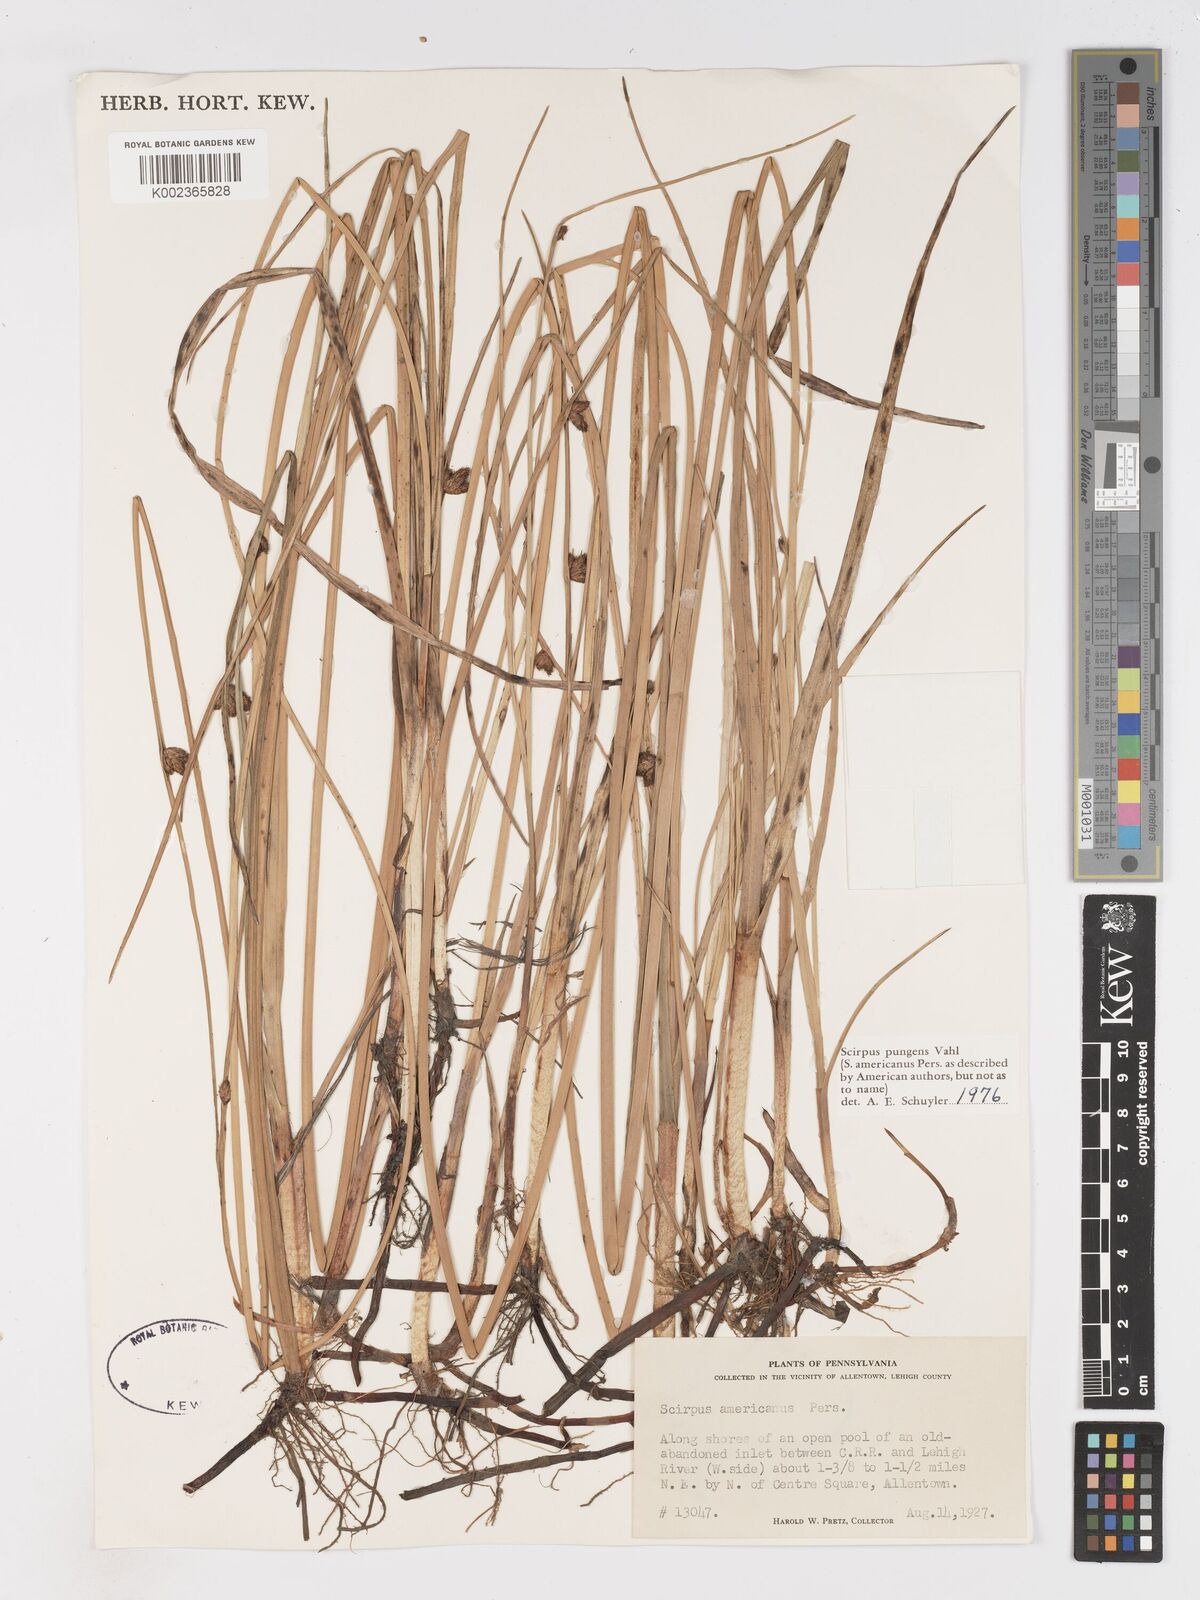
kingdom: Plantae
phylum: Tracheophyta
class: Liliopsida
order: Poales
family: Cyperaceae
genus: Schoenoplectus
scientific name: Schoenoplectus pungens
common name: Sharp club-rush
